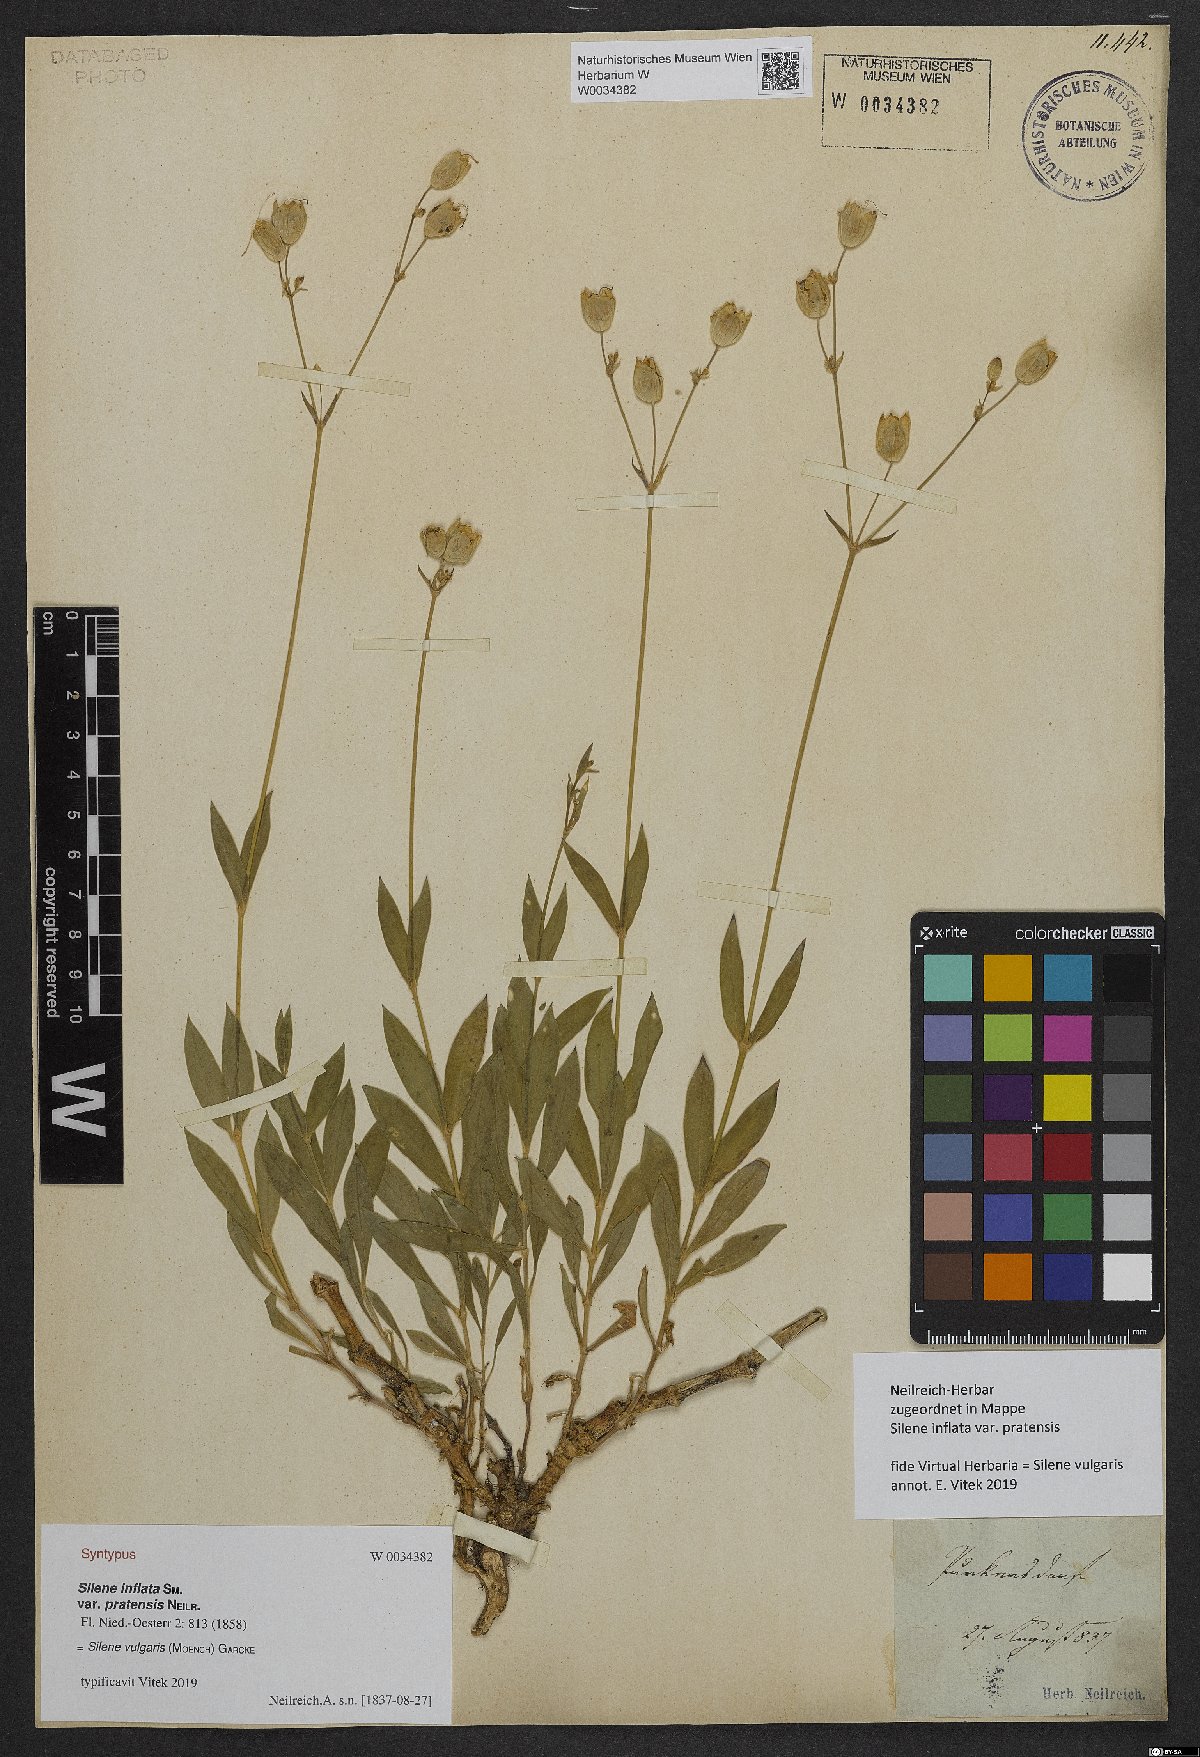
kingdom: Plantae
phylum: Tracheophyta
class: Magnoliopsida
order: Caryophyllales
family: Caryophyllaceae
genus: Silene
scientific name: Silene vulgaris
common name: Bladder campion
